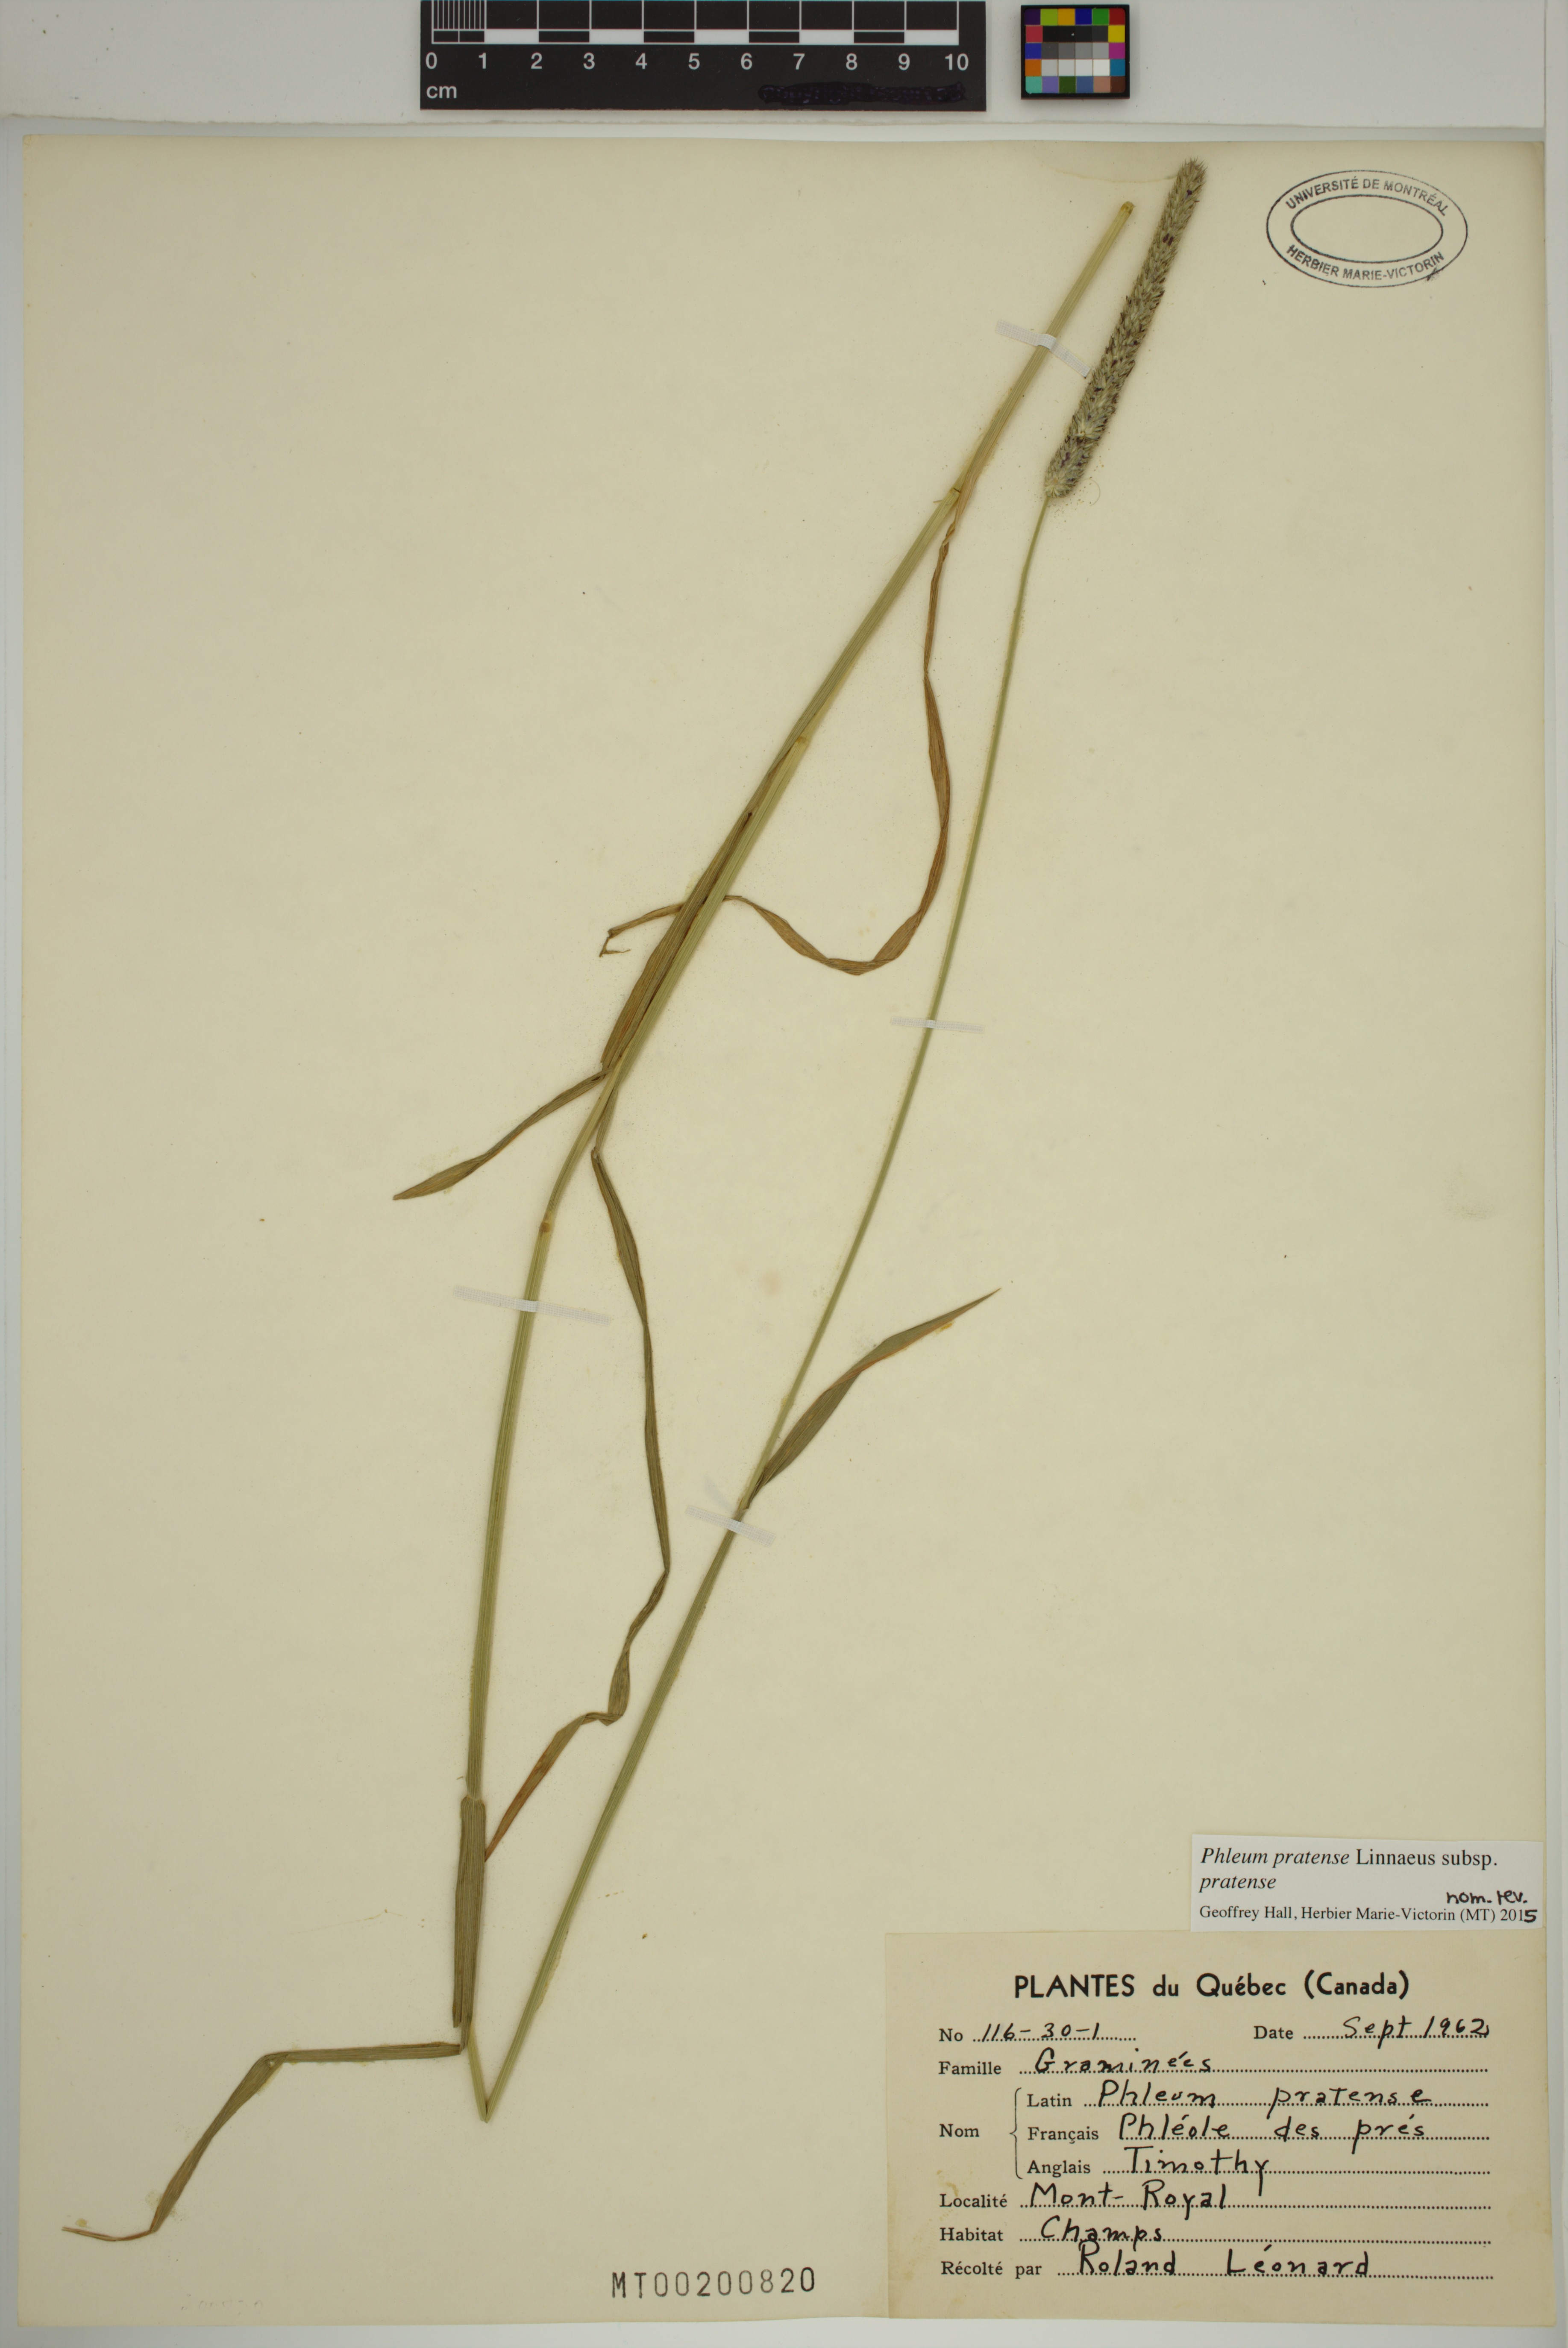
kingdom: Plantae
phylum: Tracheophyta
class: Liliopsida
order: Poales
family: Poaceae
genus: Phleum
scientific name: Phleum pratense
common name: Timothy grass
